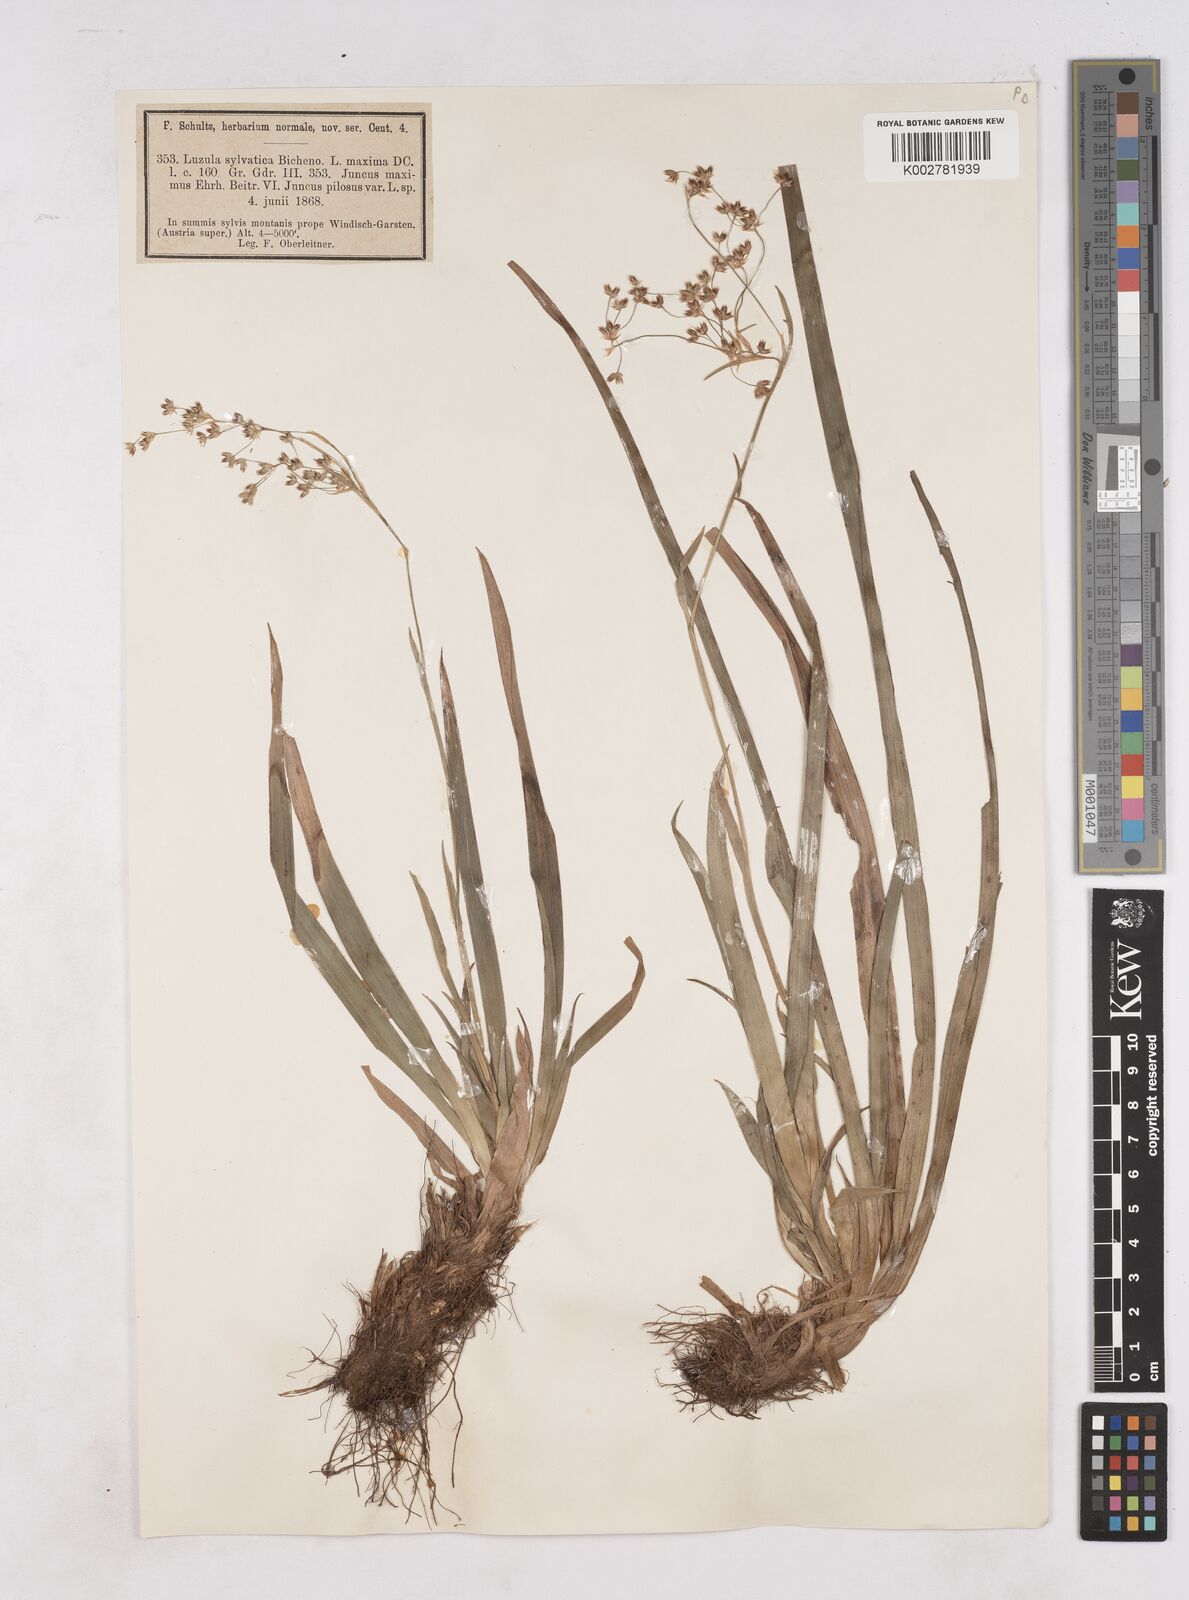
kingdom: Plantae
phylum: Tracheophyta
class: Liliopsida
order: Poales
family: Juncaceae
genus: Luzula
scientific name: Luzula sylvatica
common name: Great wood-rush
